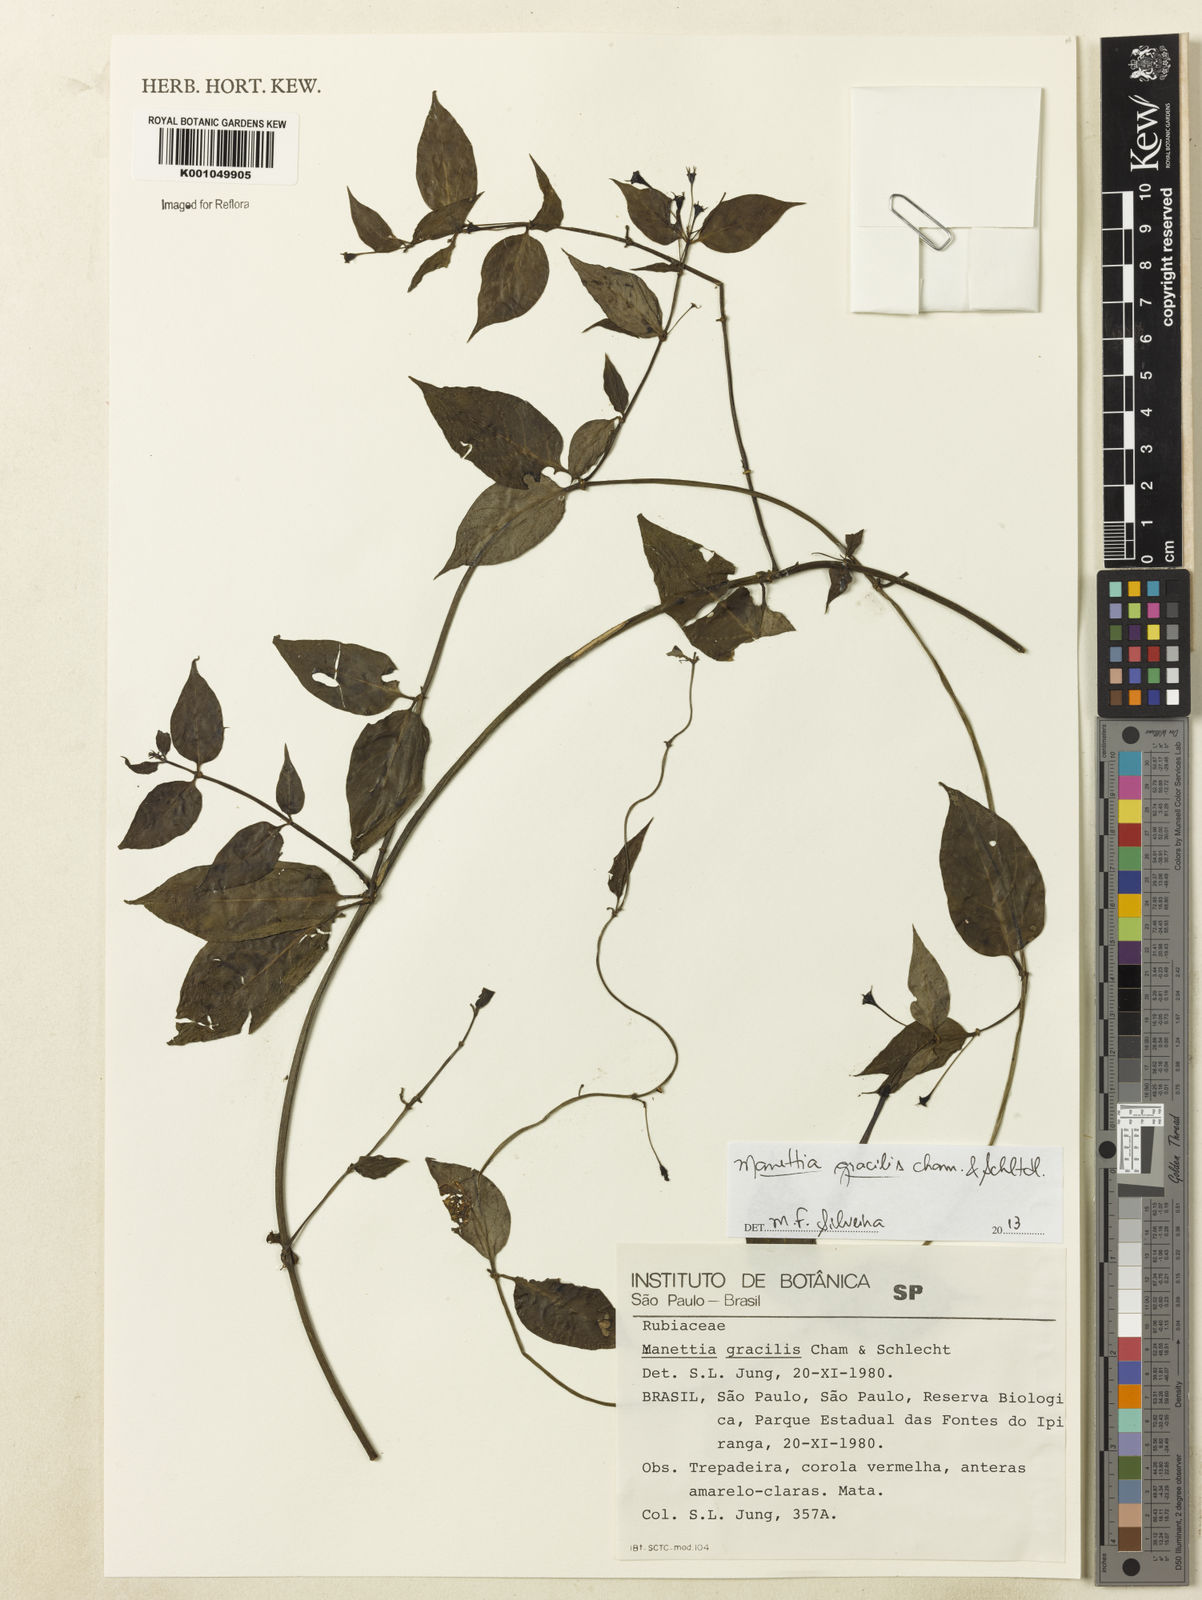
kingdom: Plantae
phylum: Tracheophyta
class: Magnoliopsida
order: Gentianales
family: Rubiaceae
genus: Manettia
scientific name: Manettia gracilis
